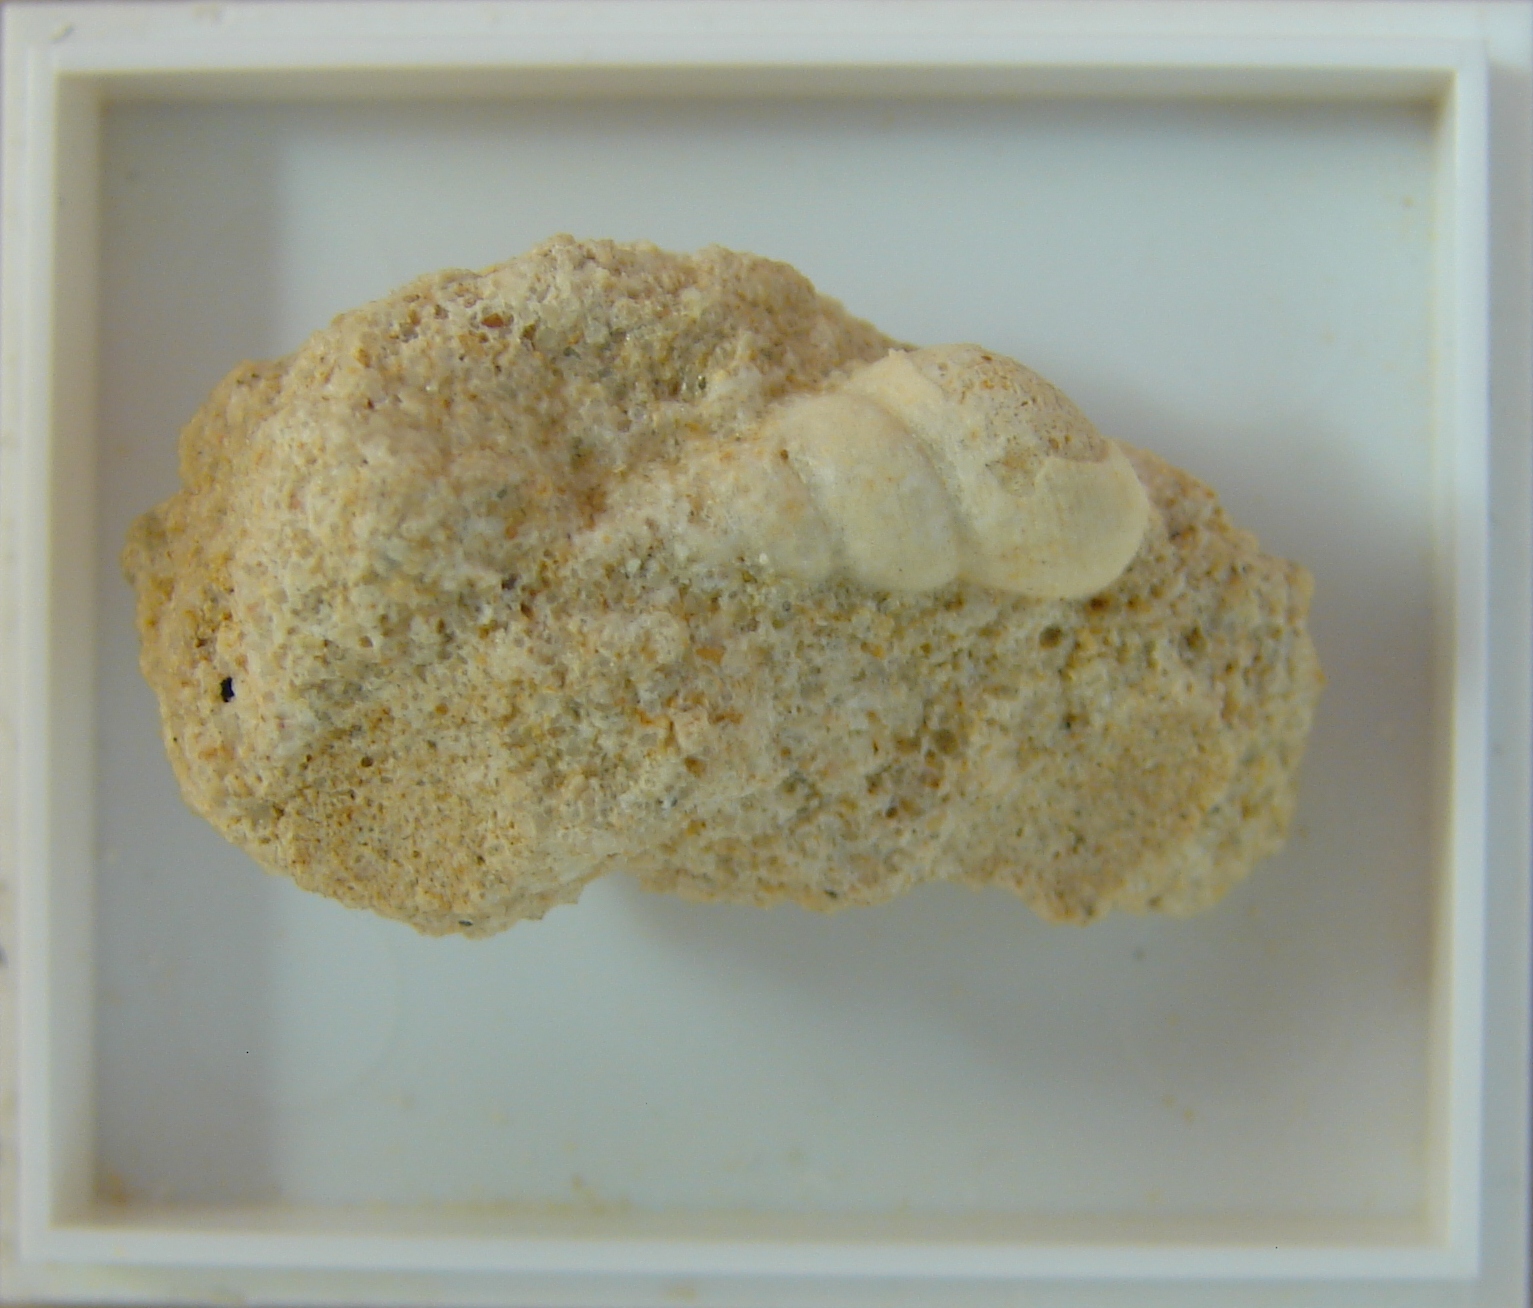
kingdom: Animalia
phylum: Mollusca
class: Gastropoda
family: Pseudomelaniidae
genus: Bourgetia
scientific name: Bourgetia
